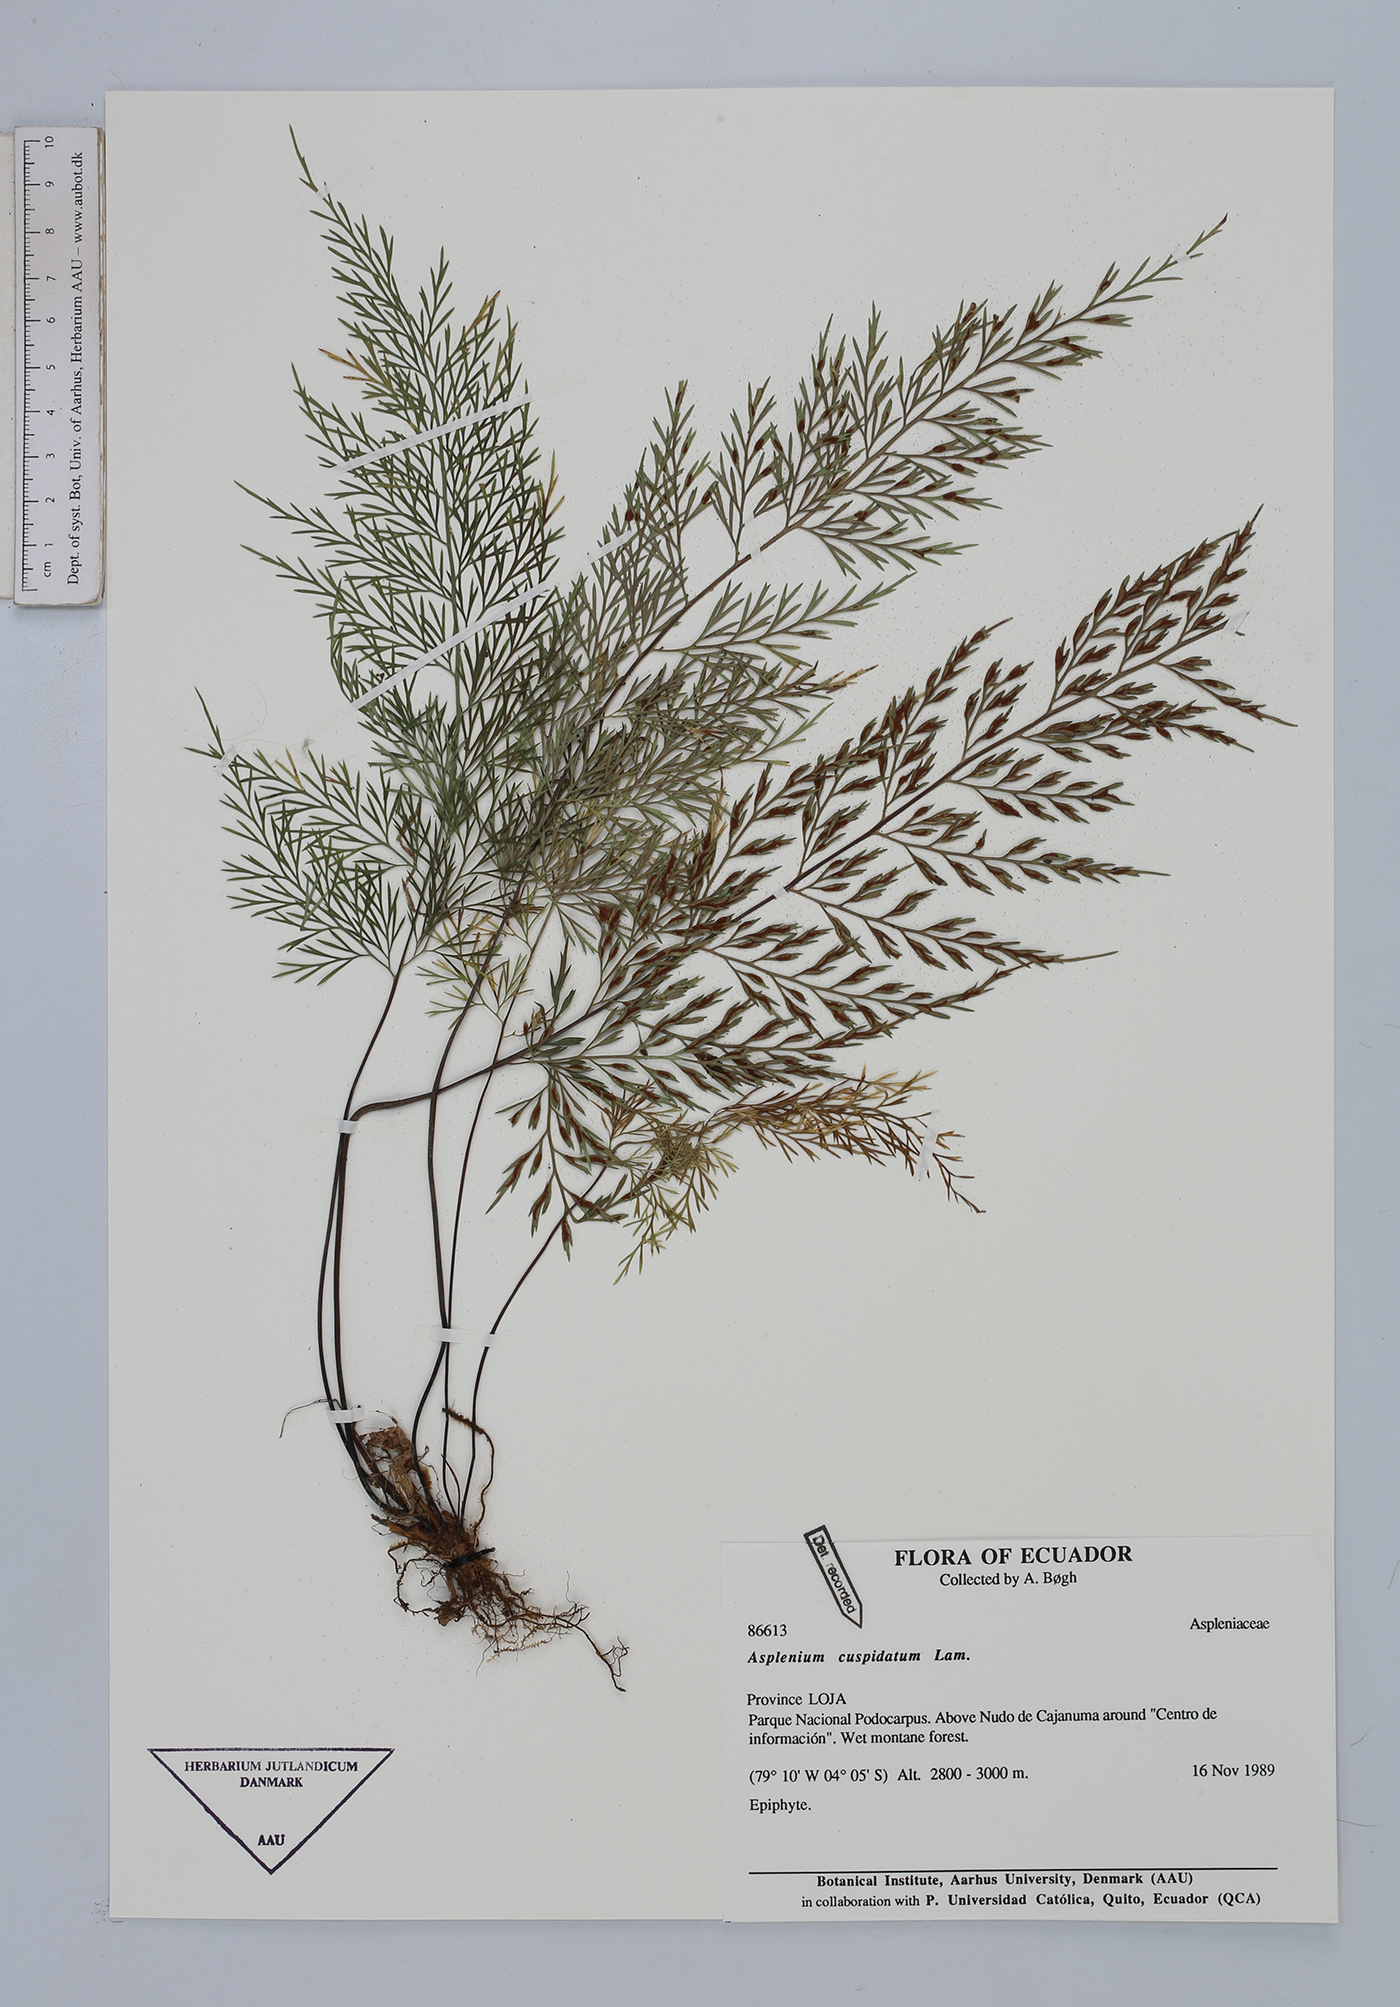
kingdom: Plantae
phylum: Tracheophyta
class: Polypodiopsida
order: Polypodiales
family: Aspleniaceae
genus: Asplenium
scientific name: Asplenium cuspidatum
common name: Eared spleenwort
